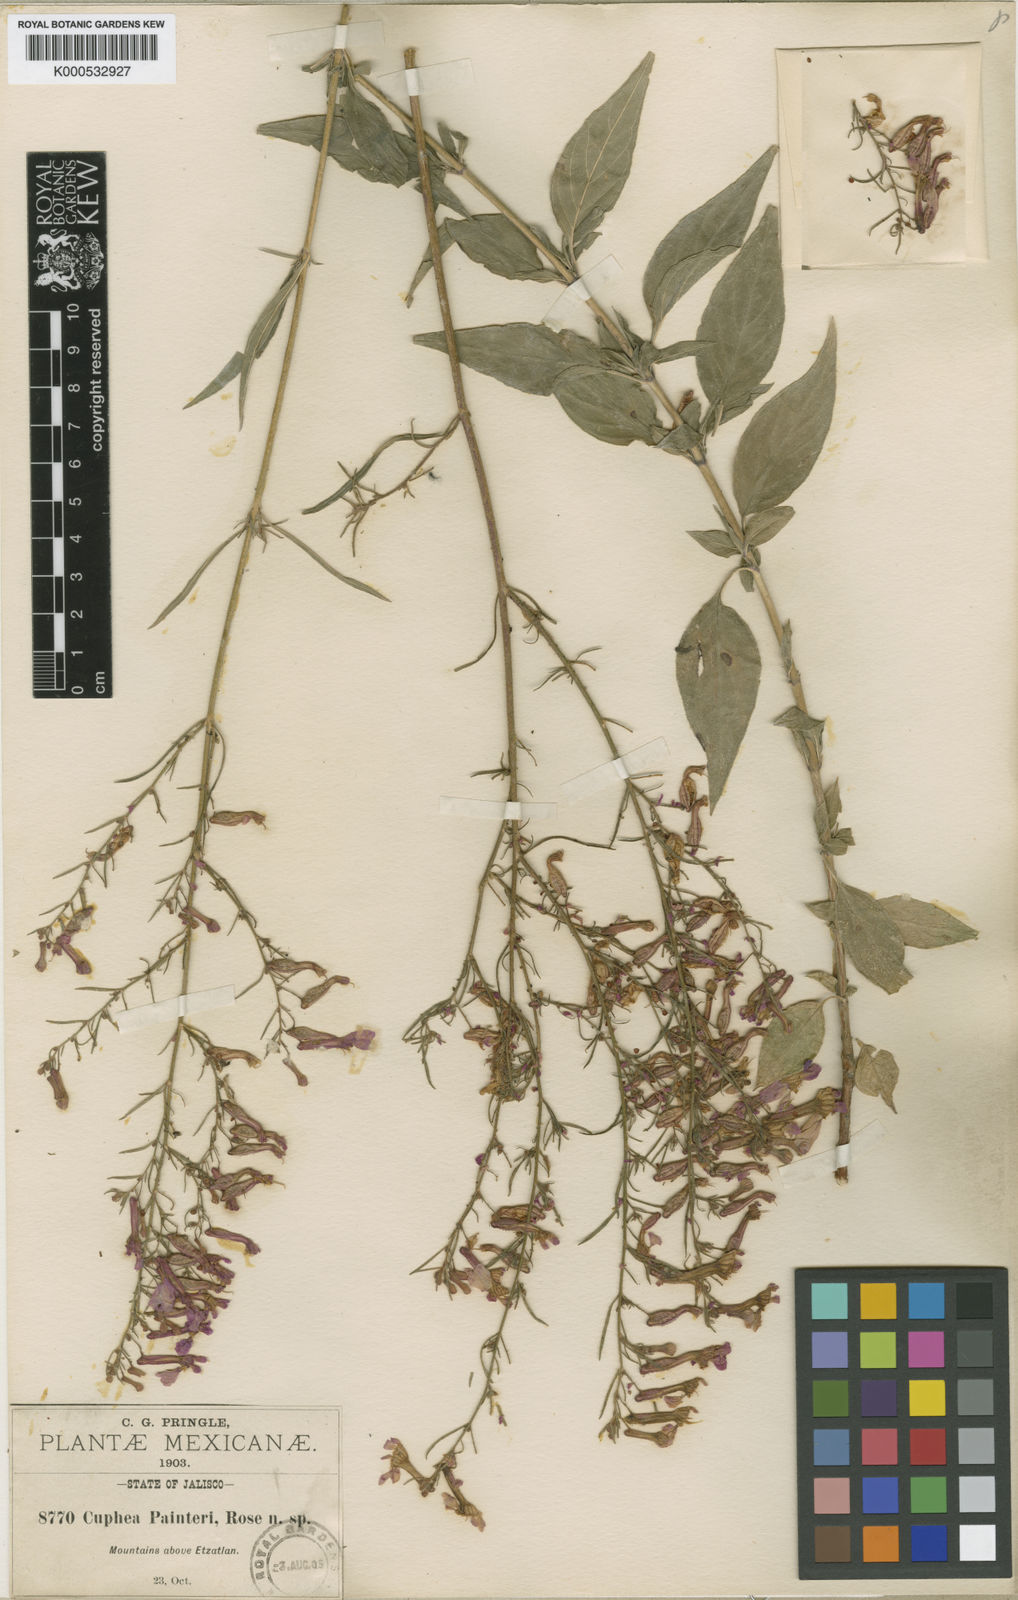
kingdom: Plantae
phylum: Tracheophyta
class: Magnoliopsida
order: Myrtales
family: Lythraceae
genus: Cuphea
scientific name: Cuphea
